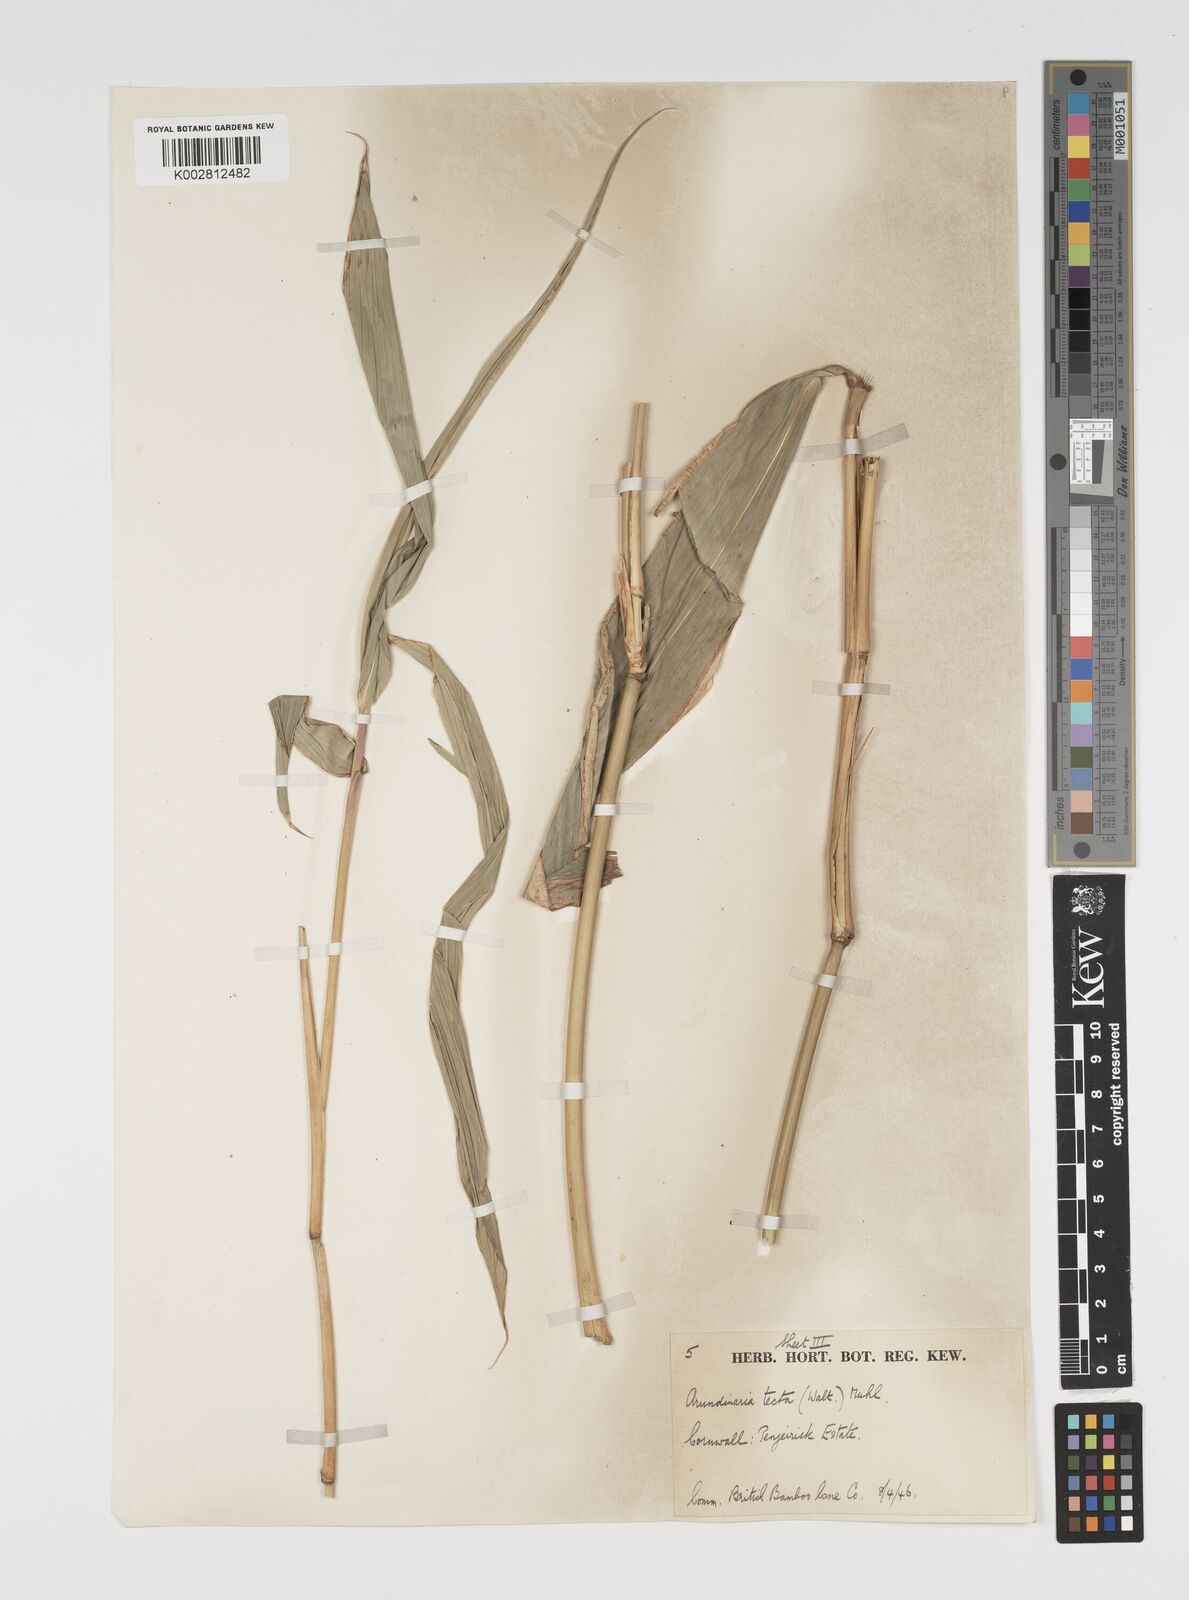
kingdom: Plantae
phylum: Tracheophyta
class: Liliopsida
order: Poales
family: Poaceae
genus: Arundinaria
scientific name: Arundinaria tecta
